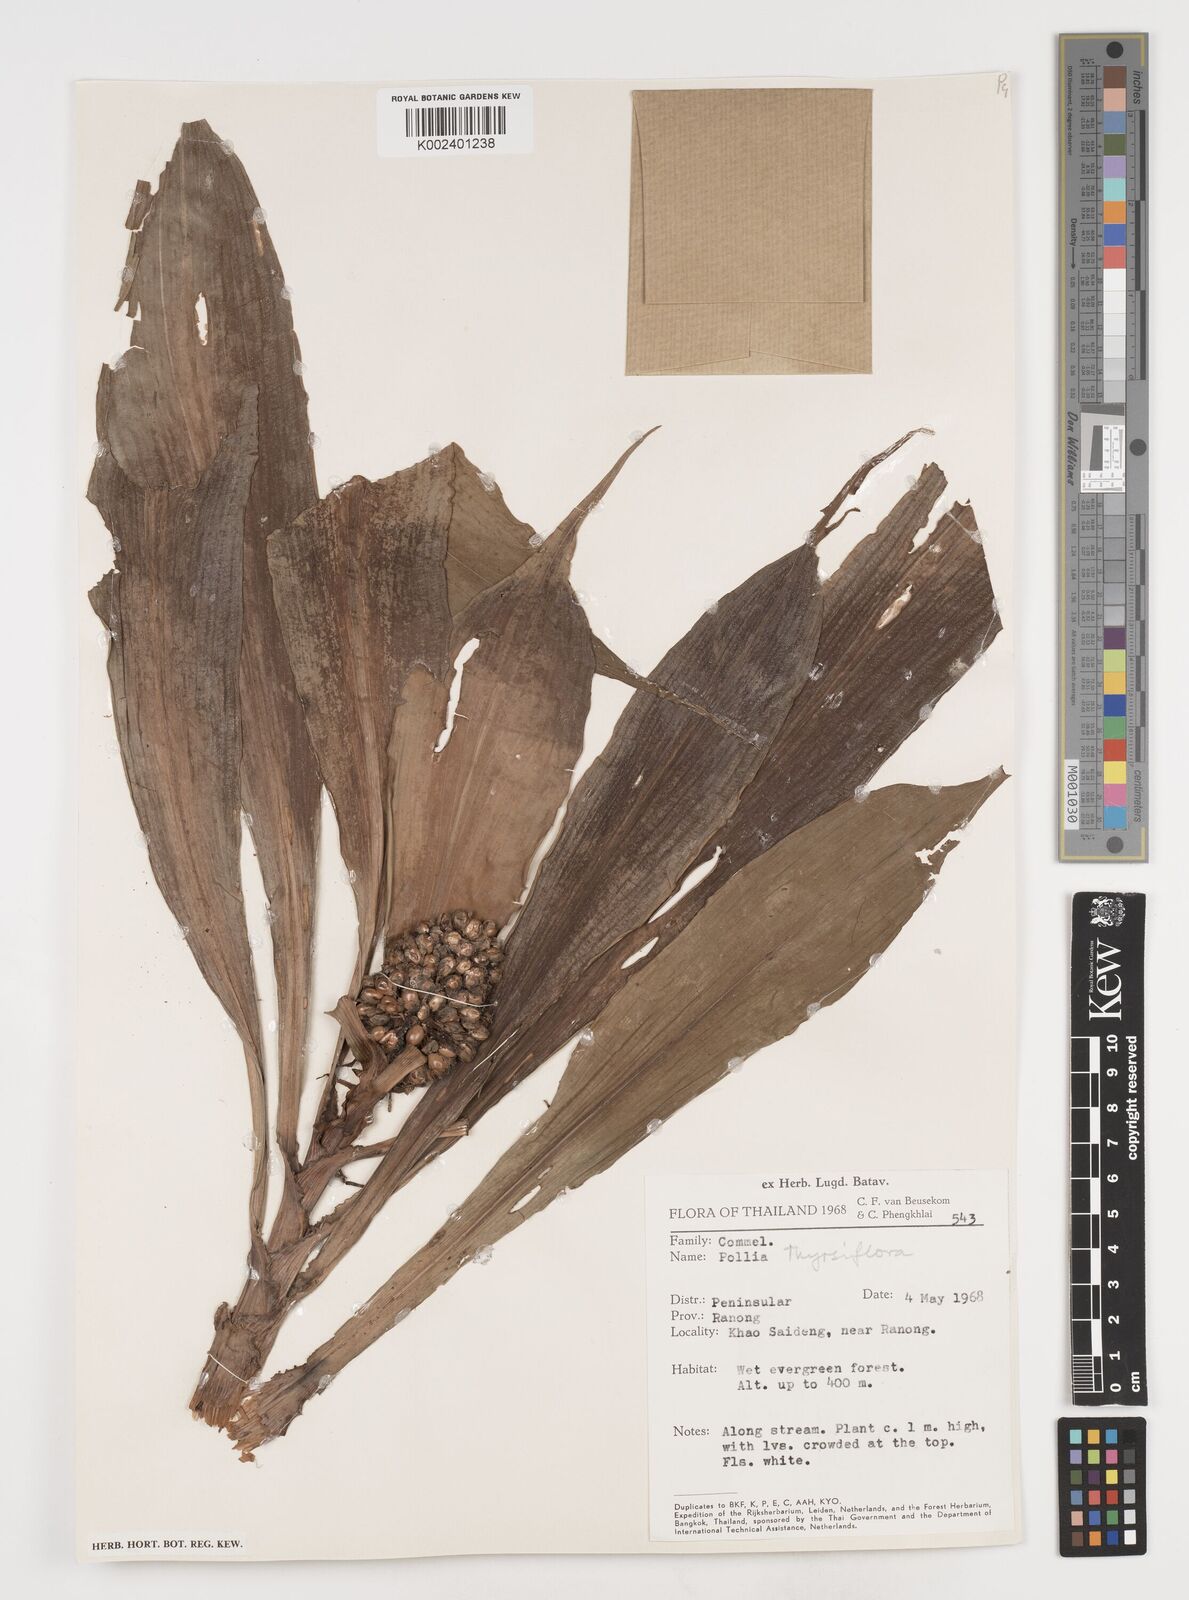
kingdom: Plantae
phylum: Tracheophyta
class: Liliopsida
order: Commelinales
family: Commelinaceae
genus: Pollia
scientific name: Pollia thyrsiflora
